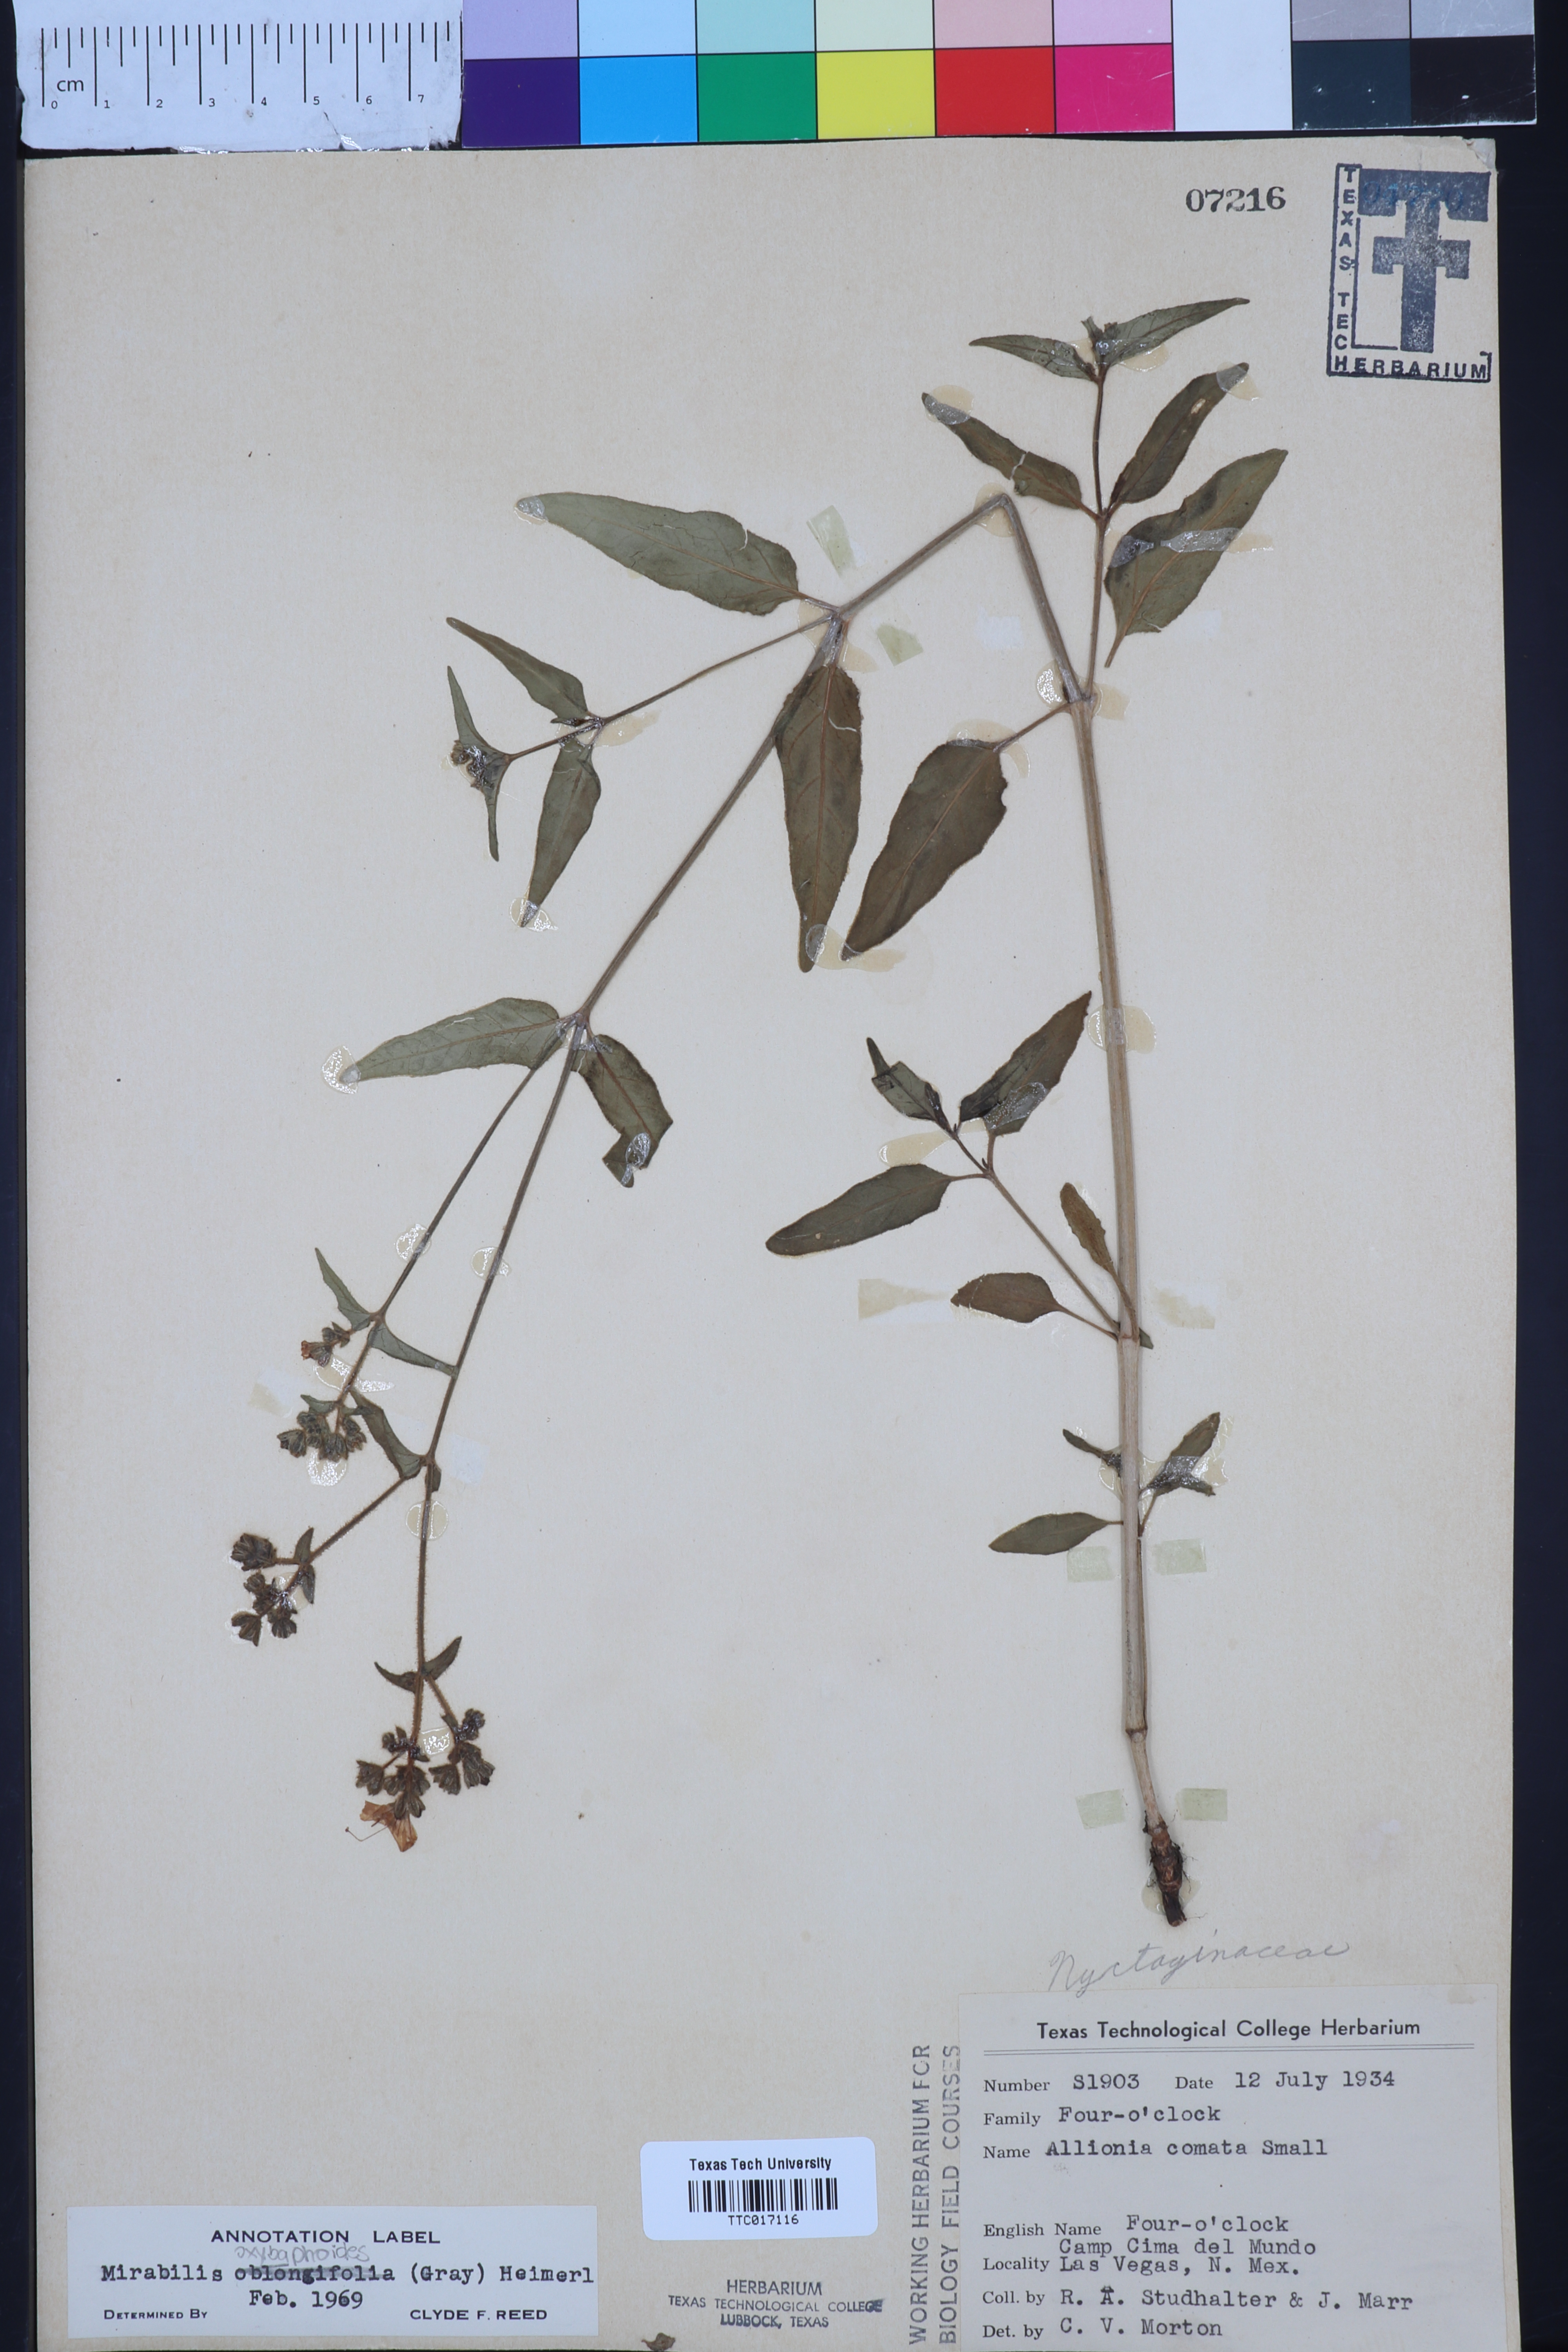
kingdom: Plantae
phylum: Tracheophyta
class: Magnoliopsida
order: Caryophyllales
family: Nyctaginaceae
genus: Mirabilis
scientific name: Mirabilis albida
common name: Hairy four-o'clock
